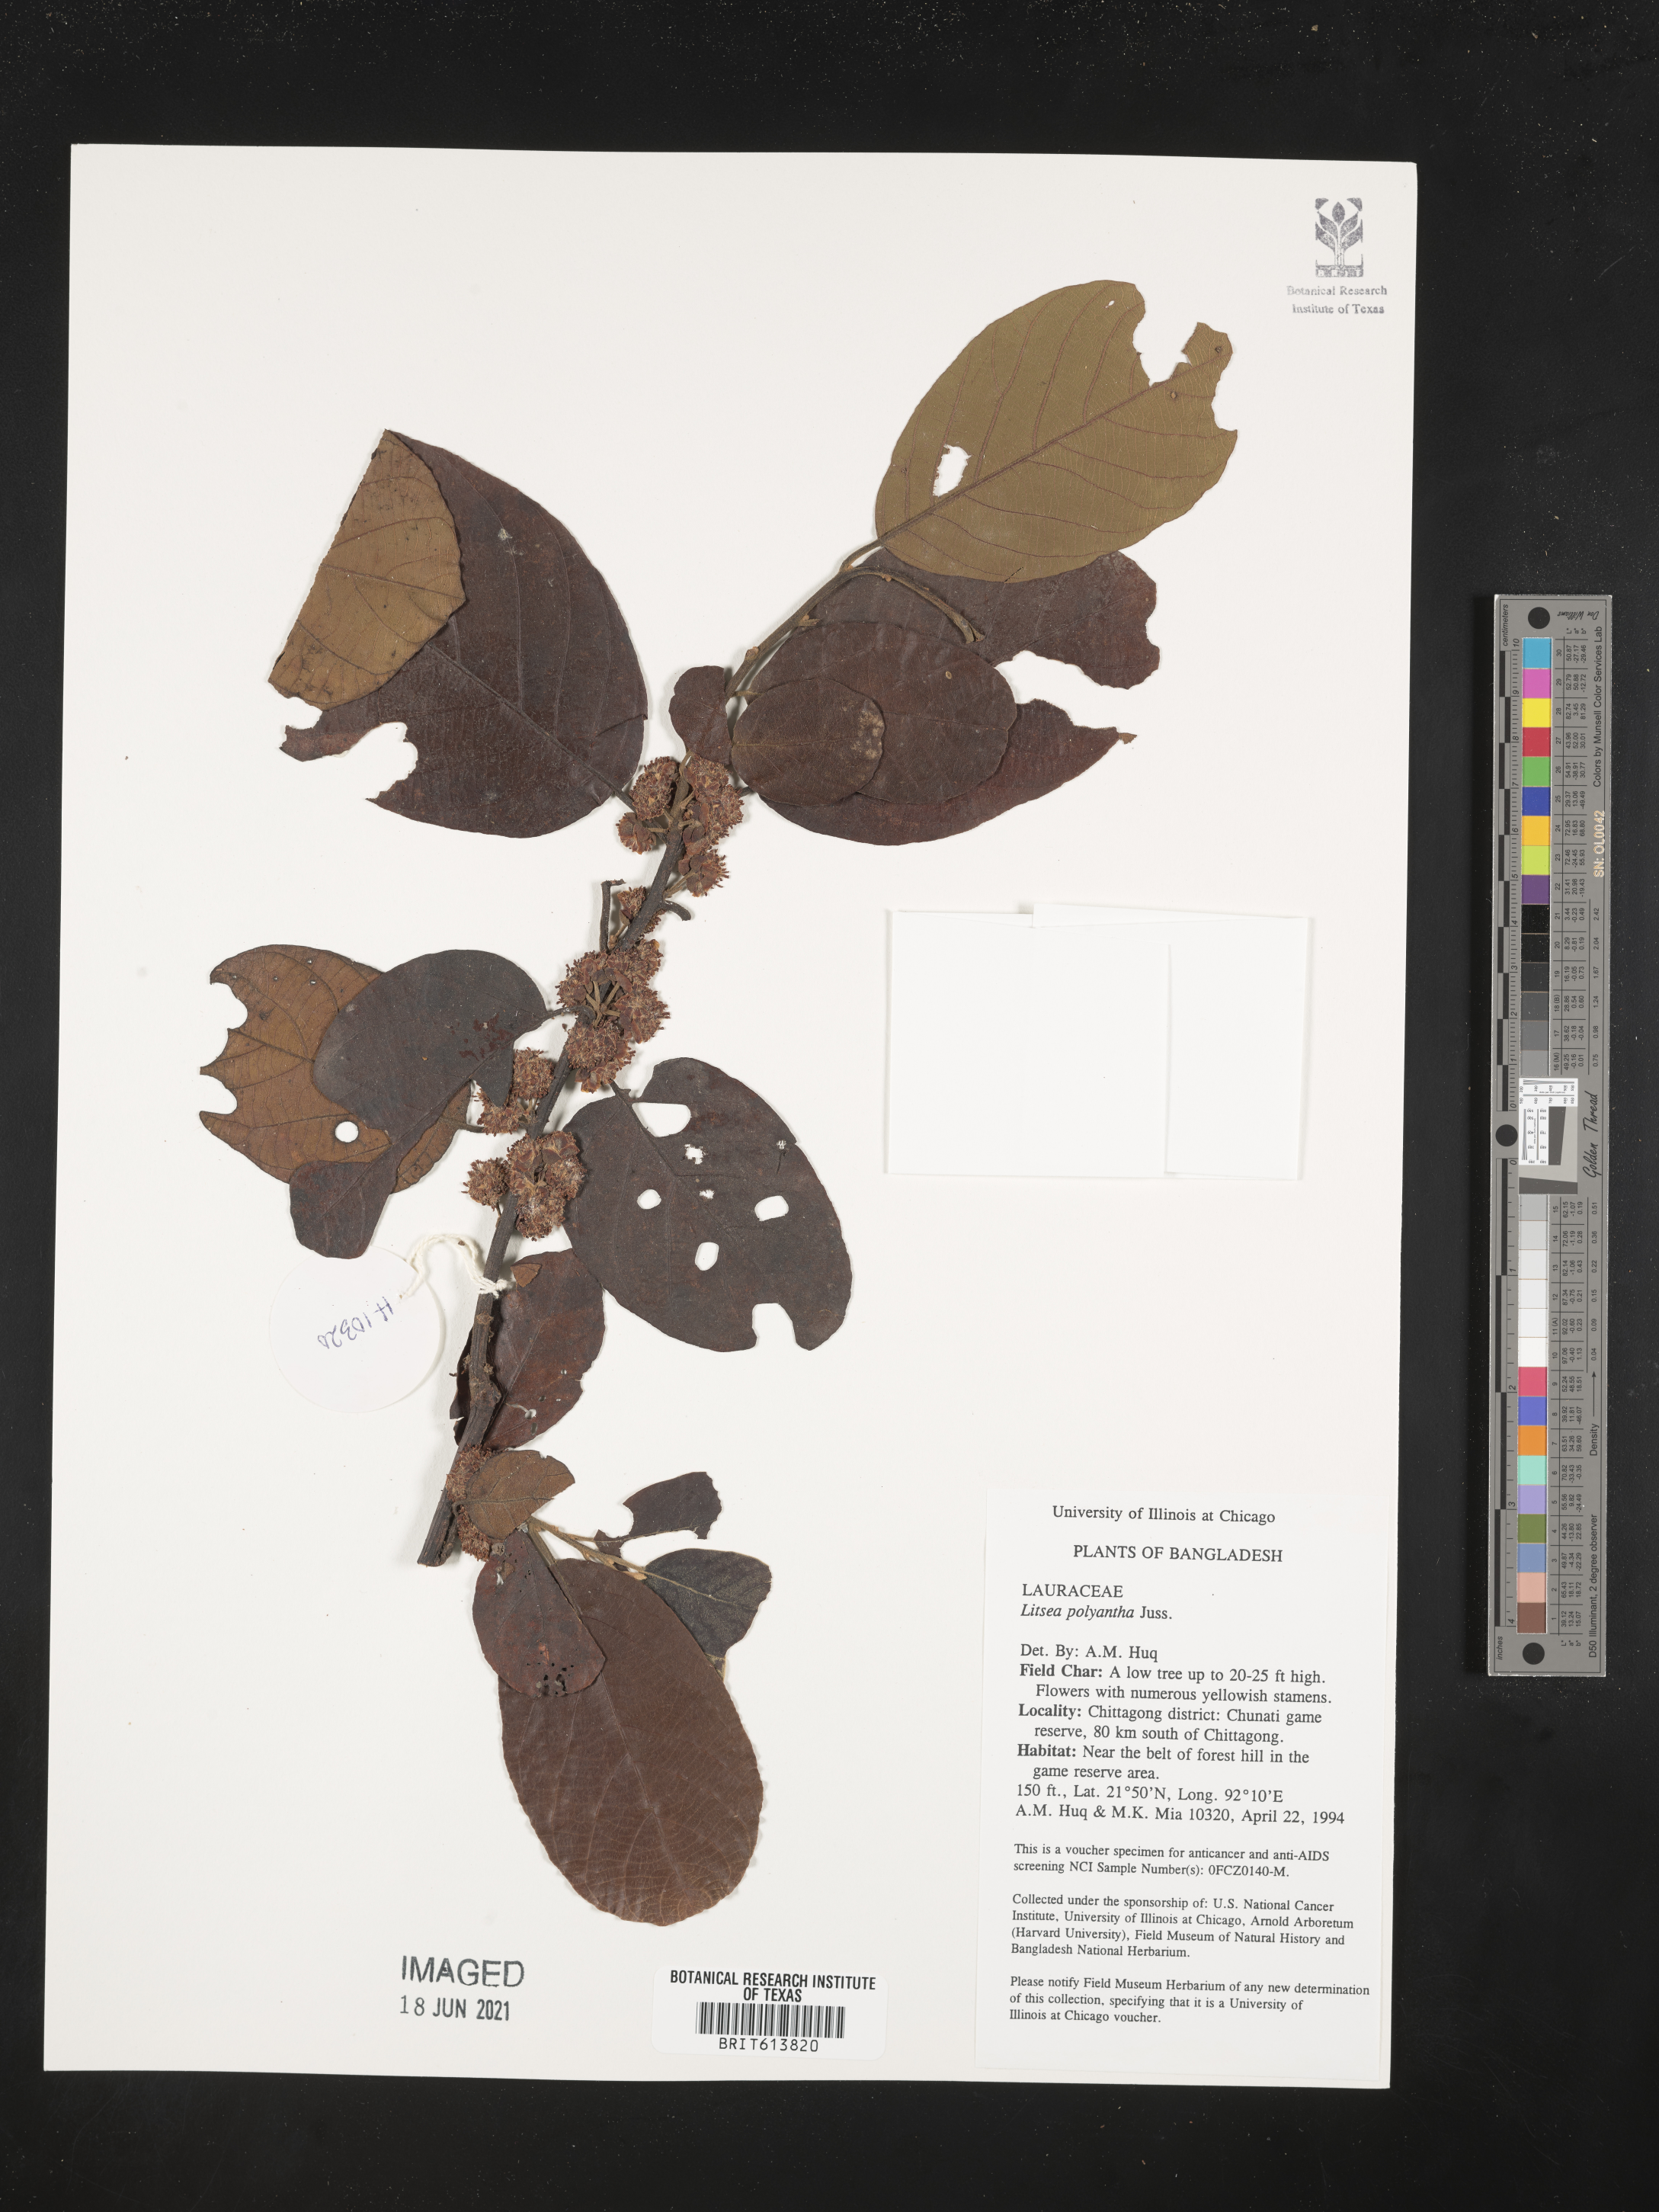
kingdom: Plantae
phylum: Tracheophyta
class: Magnoliopsida
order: Laurales
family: Lauraceae
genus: Litsea
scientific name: Litsea monopetala
